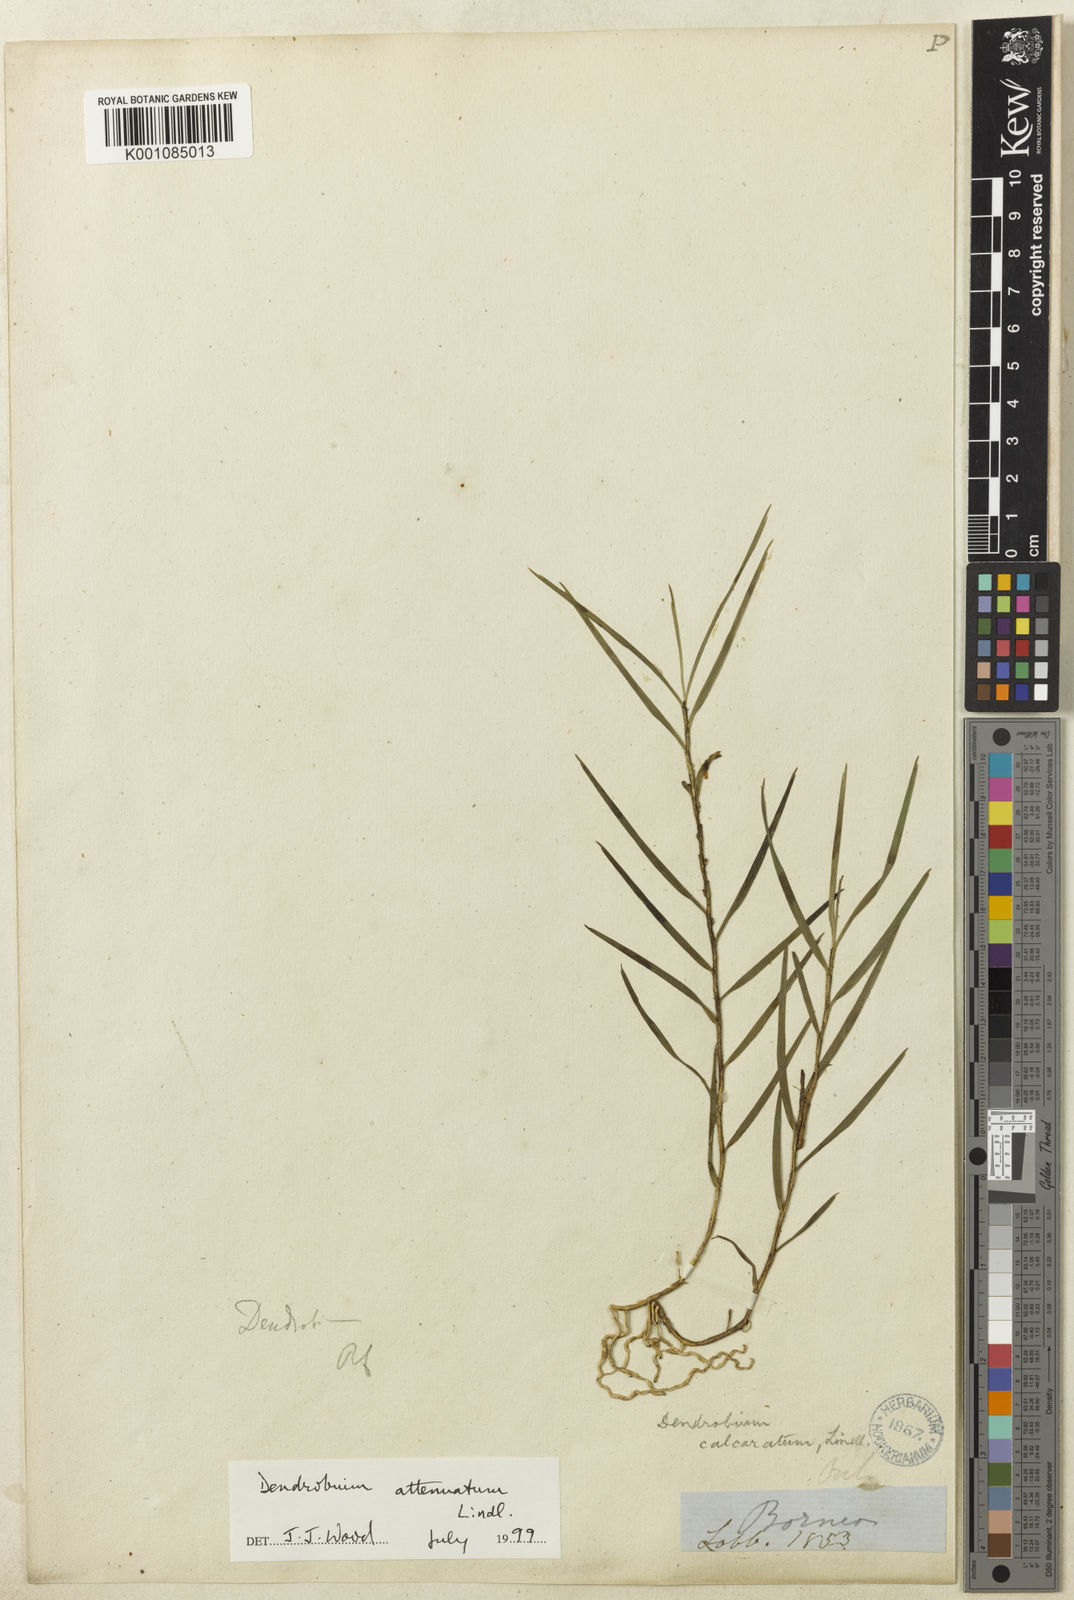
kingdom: Plantae
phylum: Tracheophyta
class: Liliopsida
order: Asparagales
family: Orchidaceae
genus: Dendrobium
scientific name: Dendrobium attenuatum
